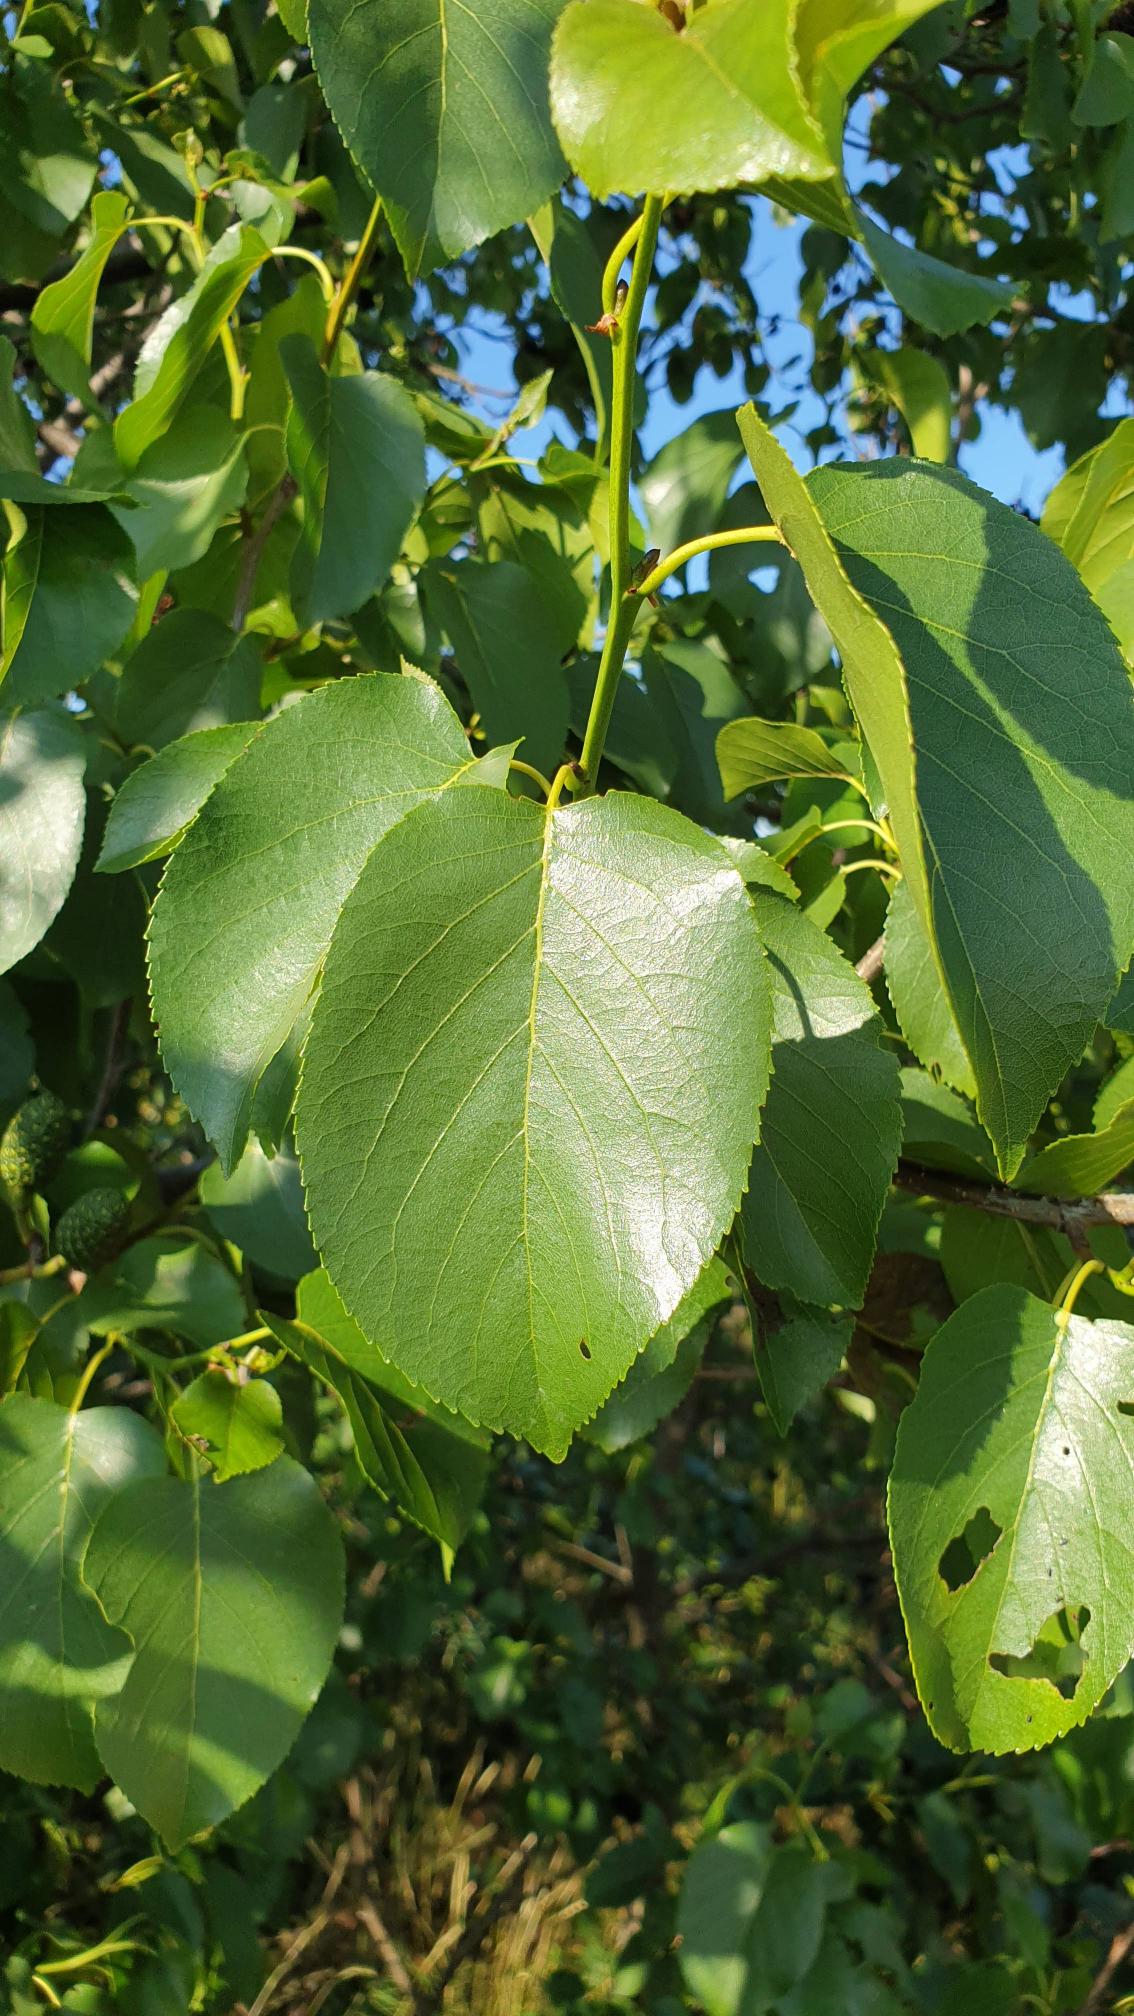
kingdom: Plantae
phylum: Tracheophyta
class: Magnoliopsida
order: Fagales
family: Betulaceae
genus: Alnus
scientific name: Alnus cordata
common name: Hjertebladet el
